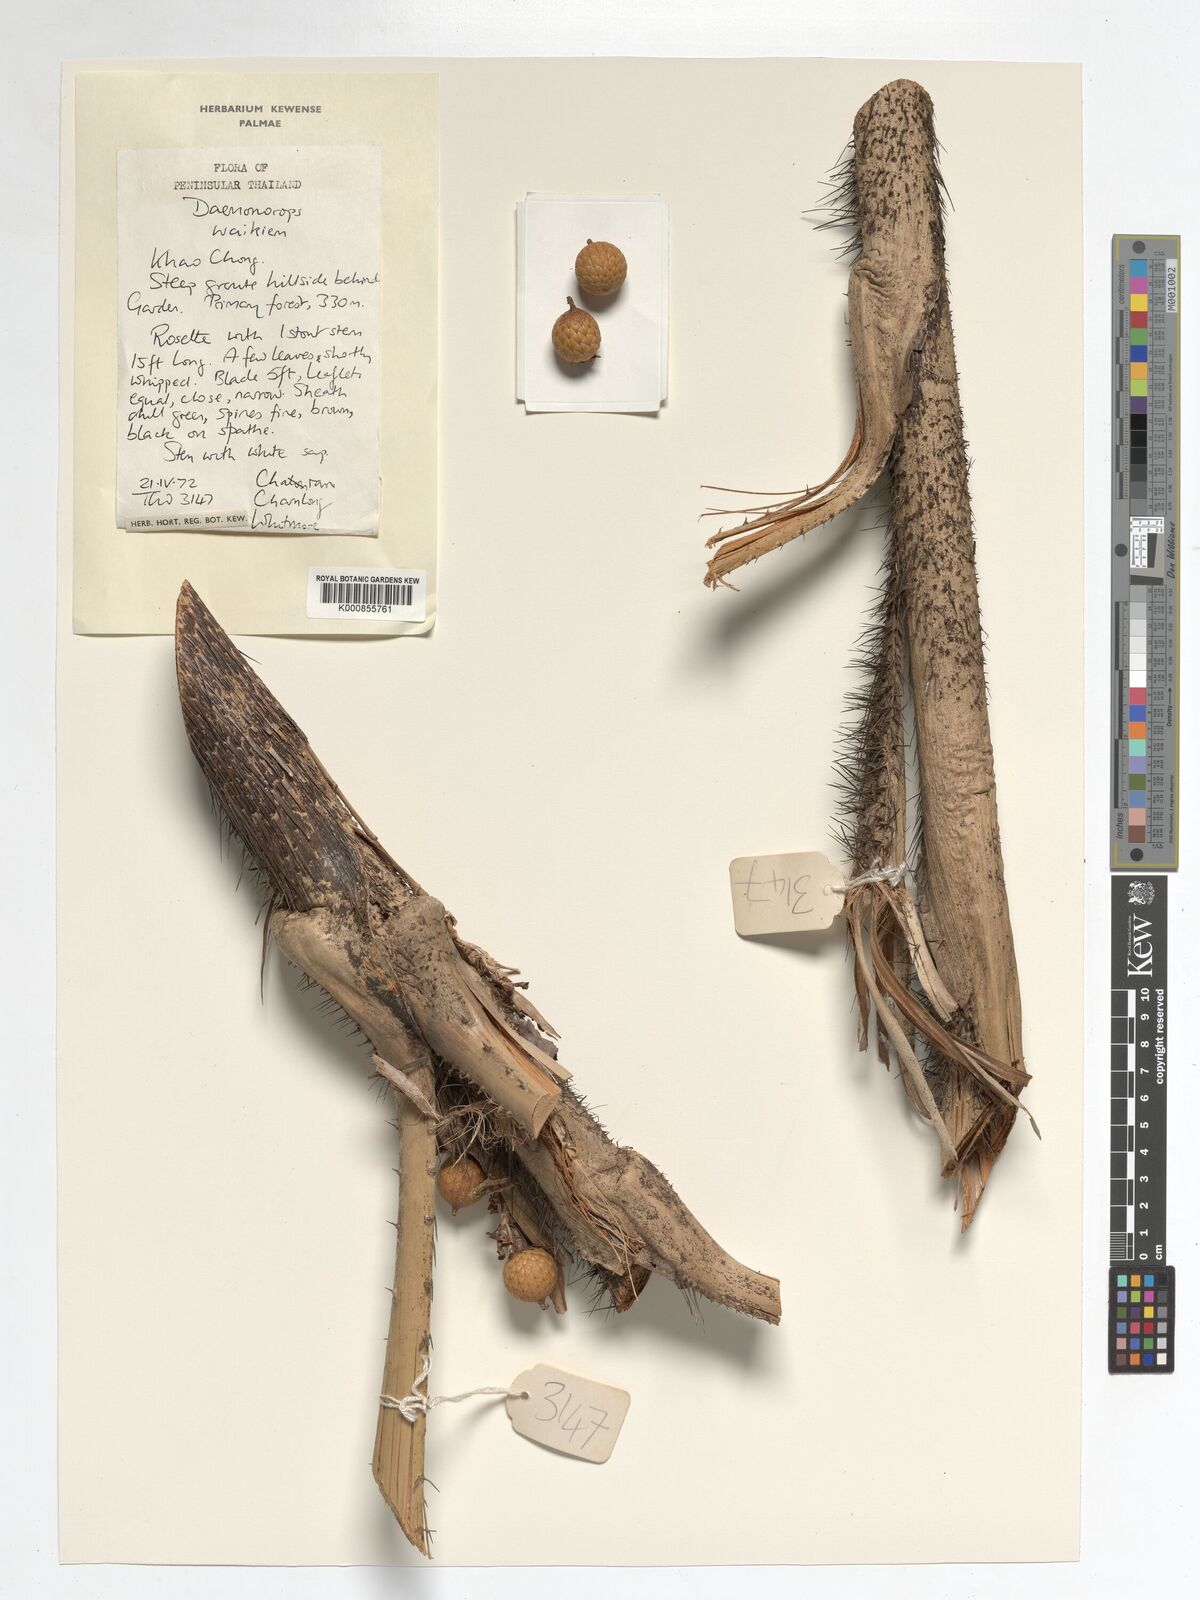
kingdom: Plantae
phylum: Tracheophyta
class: Liliopsida
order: Arecales
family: Arecaceae
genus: Daemonorops
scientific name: Daemonorops
